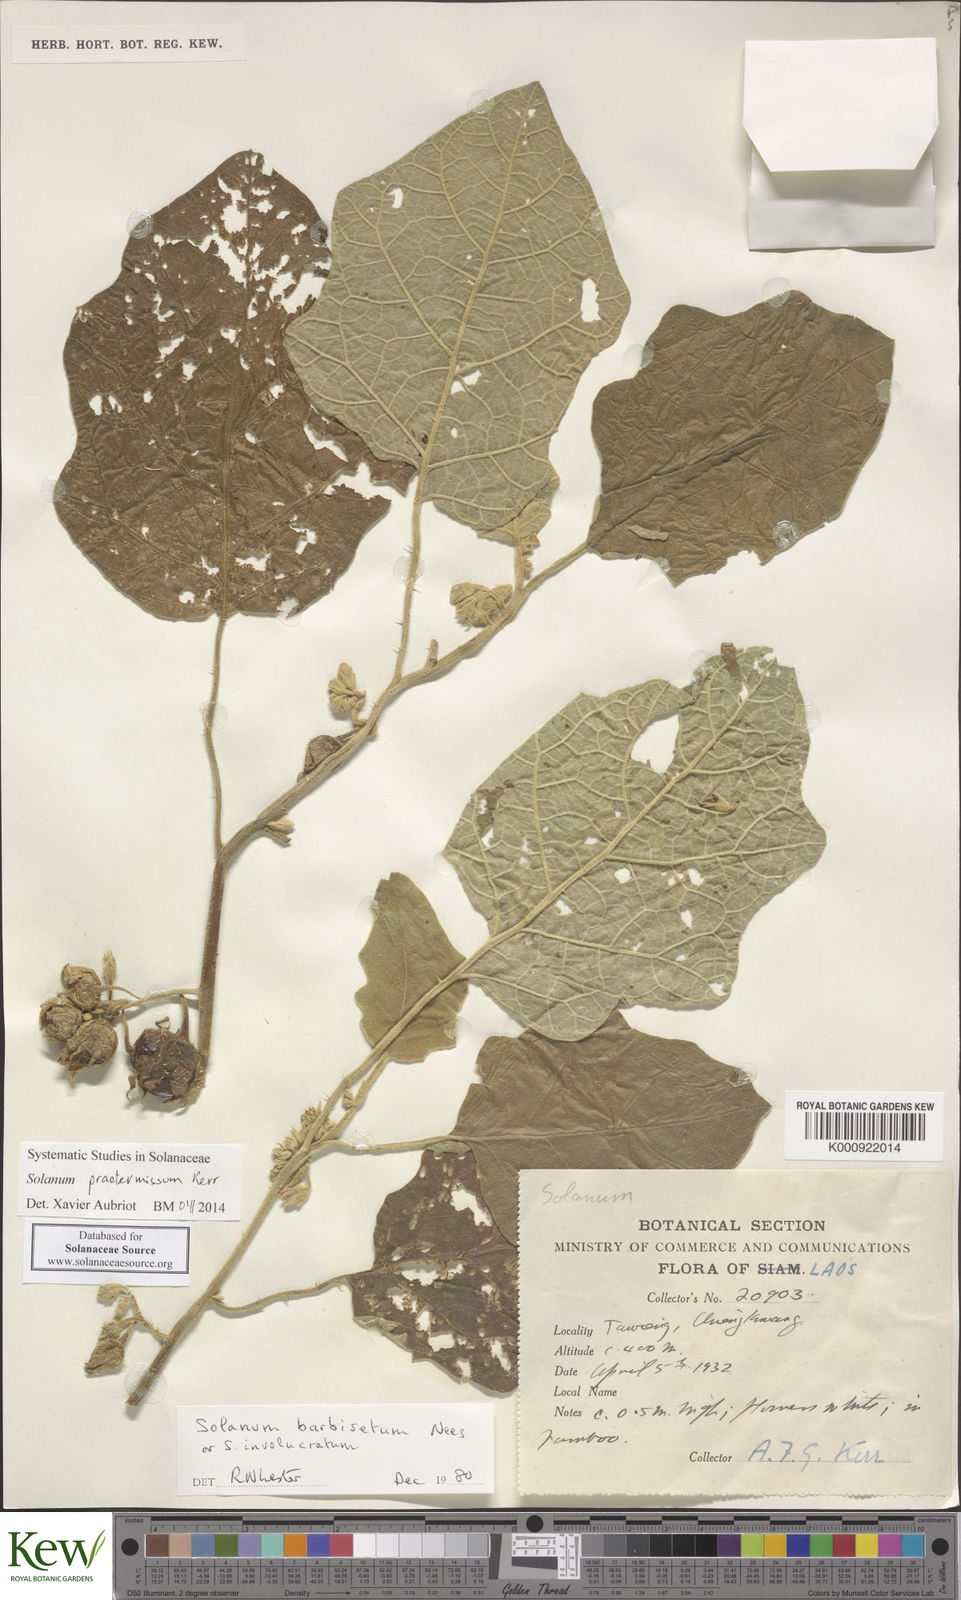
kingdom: Plantae
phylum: Tracheophyta
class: Magnoliopsida
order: Solanales
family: Solanaceae
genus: Solanum
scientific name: Solanum praetermissum
